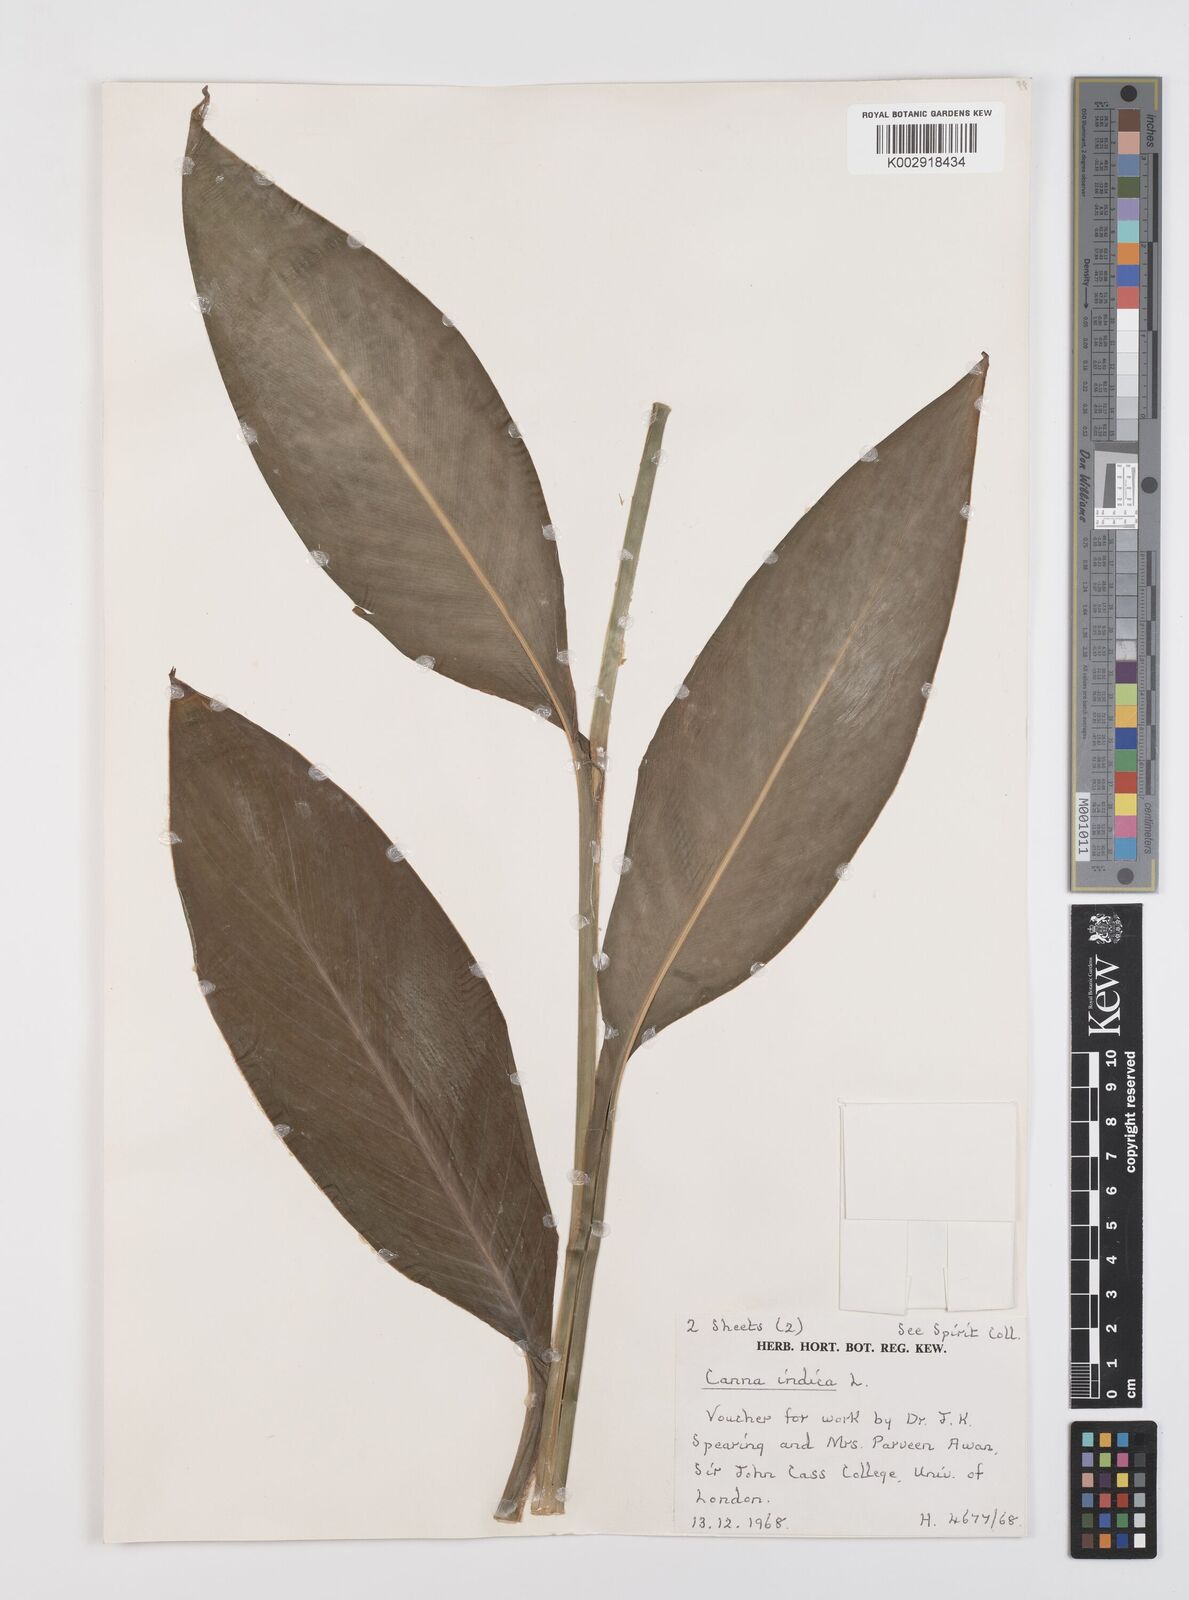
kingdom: Plantae
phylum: Tracheophyta
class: Liliopsida
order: Zingiberales
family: Cannaceae
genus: Canna
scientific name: Canna indica
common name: Indian shot
